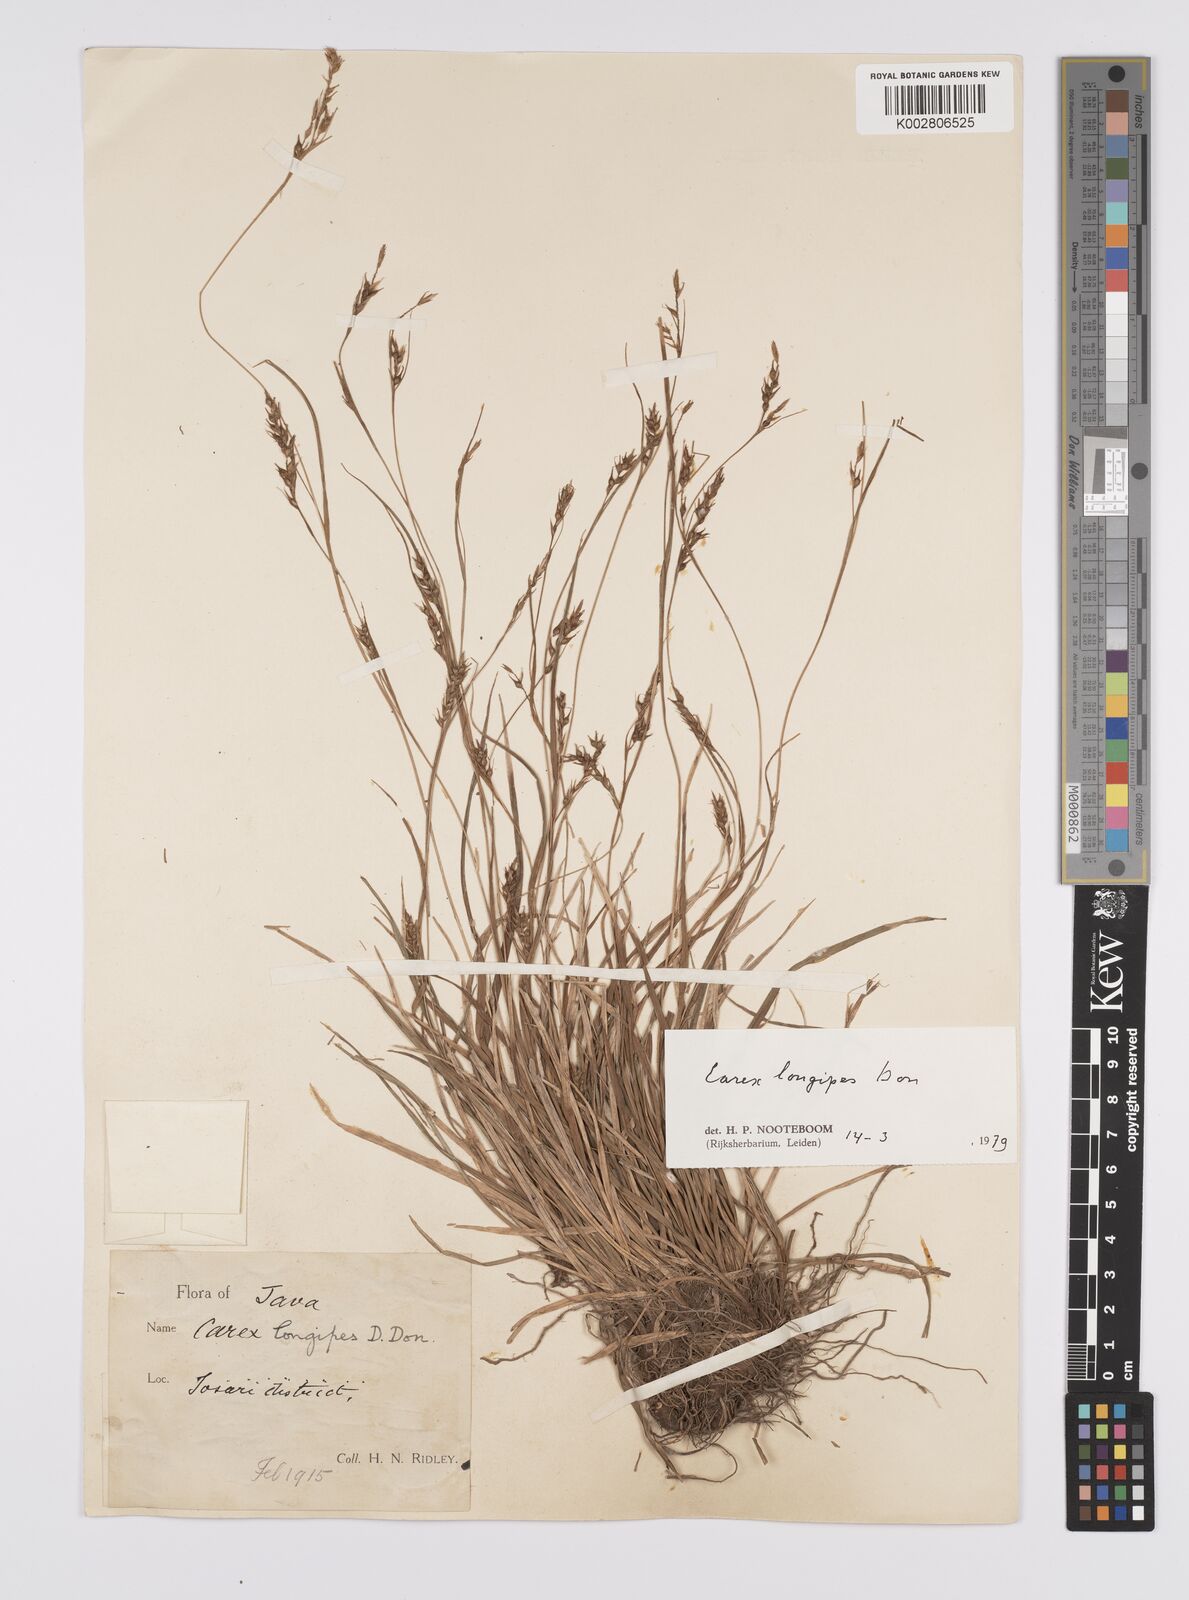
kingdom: Plantae
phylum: Tracheophyta
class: Liliopsida
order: Poales
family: Cyperaceae
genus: Carex
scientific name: Carex longipes
